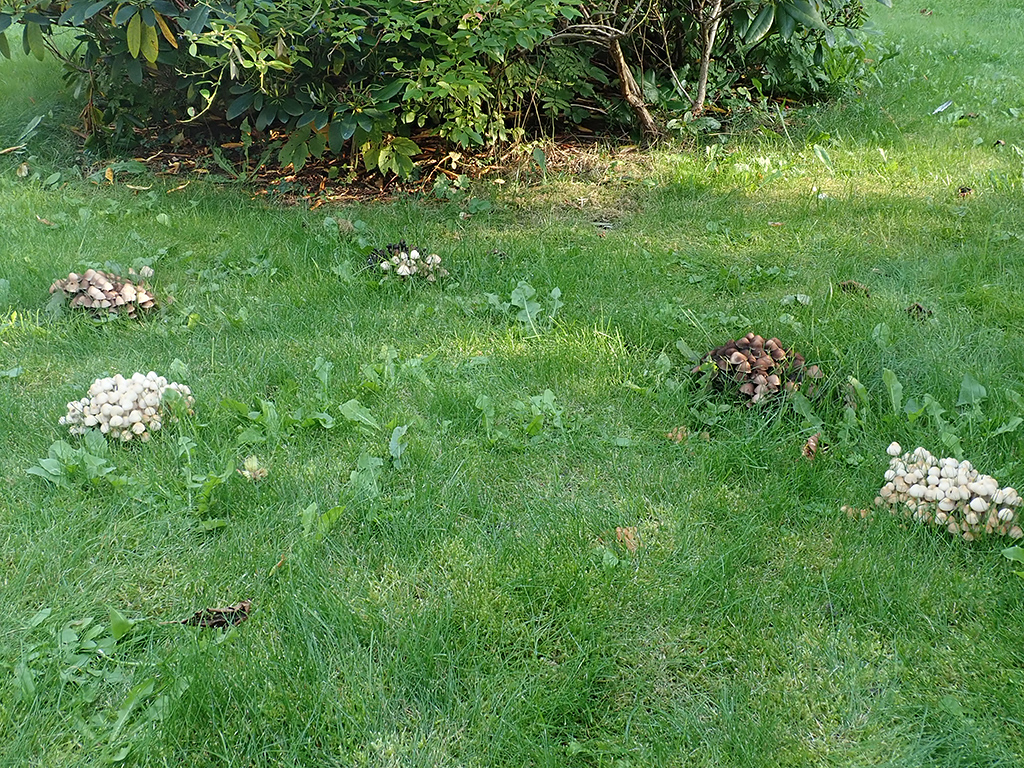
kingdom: Fungi
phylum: Basidiomycota
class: Agaricomycetes
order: Agaricales
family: Psathyrellaceae
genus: Britzelmayria
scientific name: Britzelmayria multipedata
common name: knippe-mørkhat
